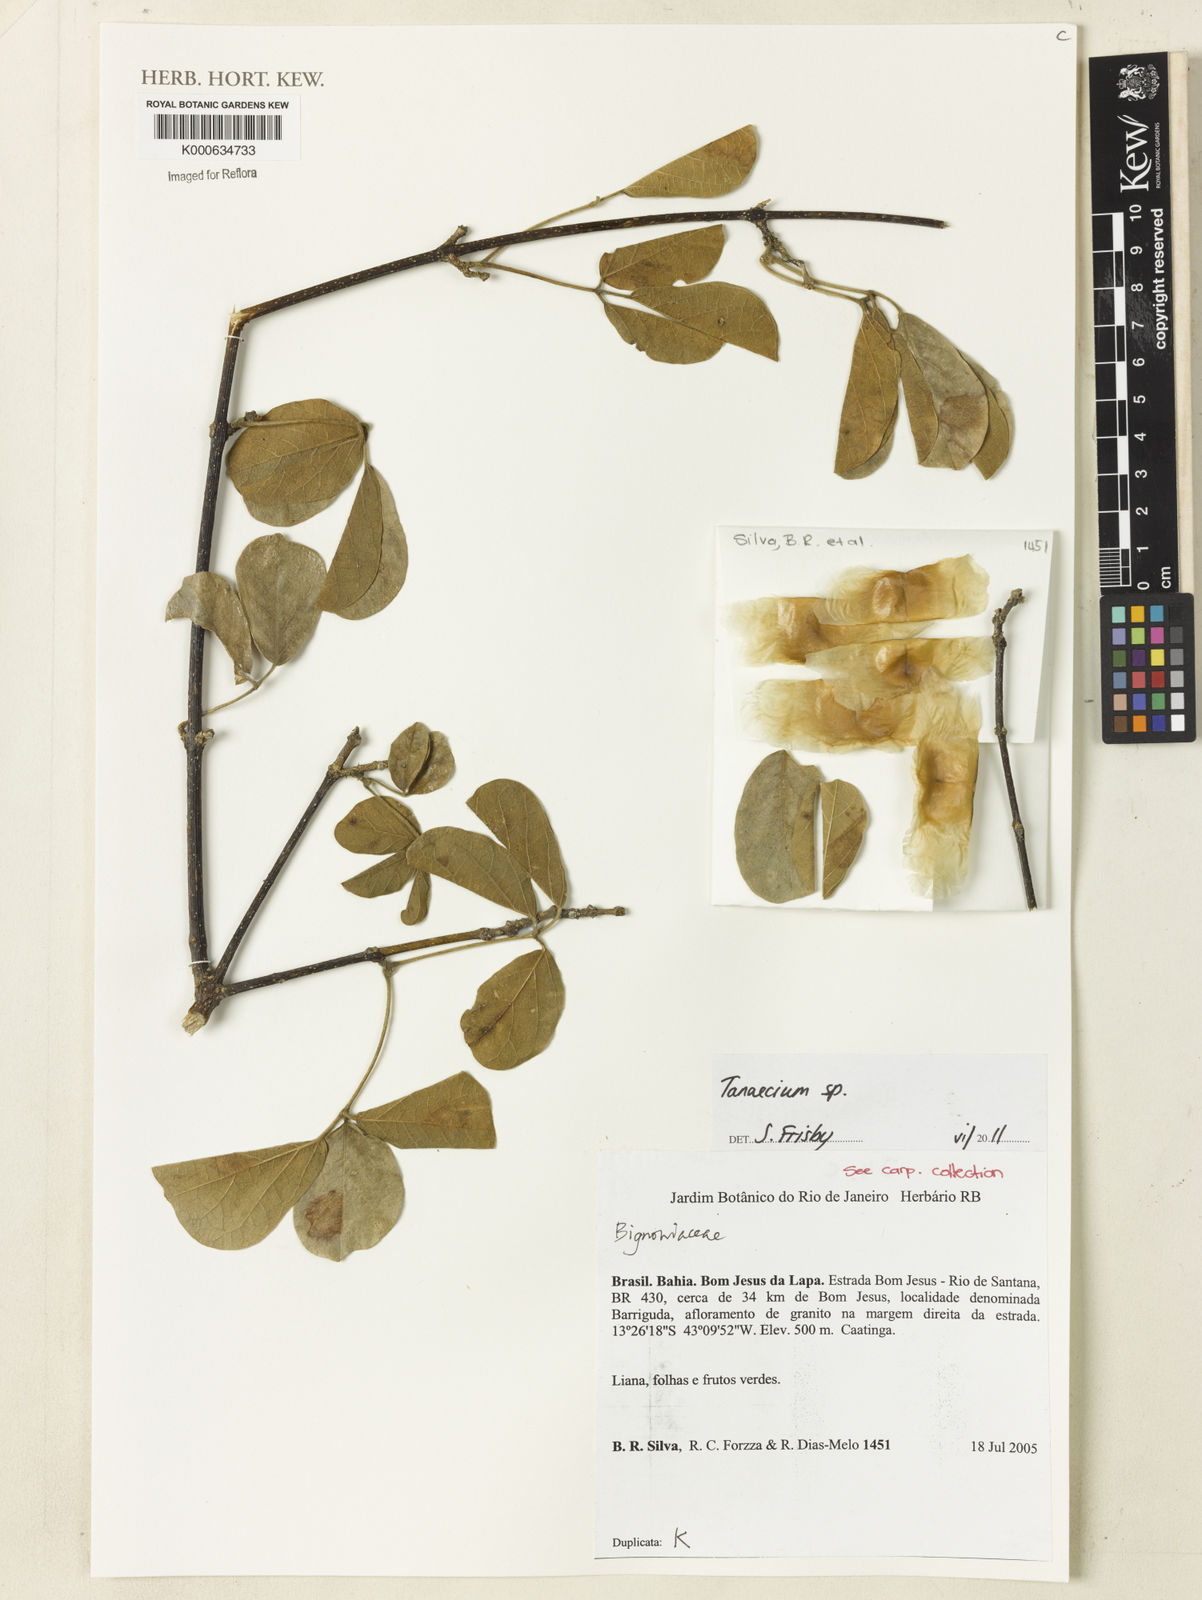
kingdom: Plantae
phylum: Tracheophyta
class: Magnoliopsida
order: Lamiales
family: Bignoniaceae
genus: Tanaecium
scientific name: Tanaecium
